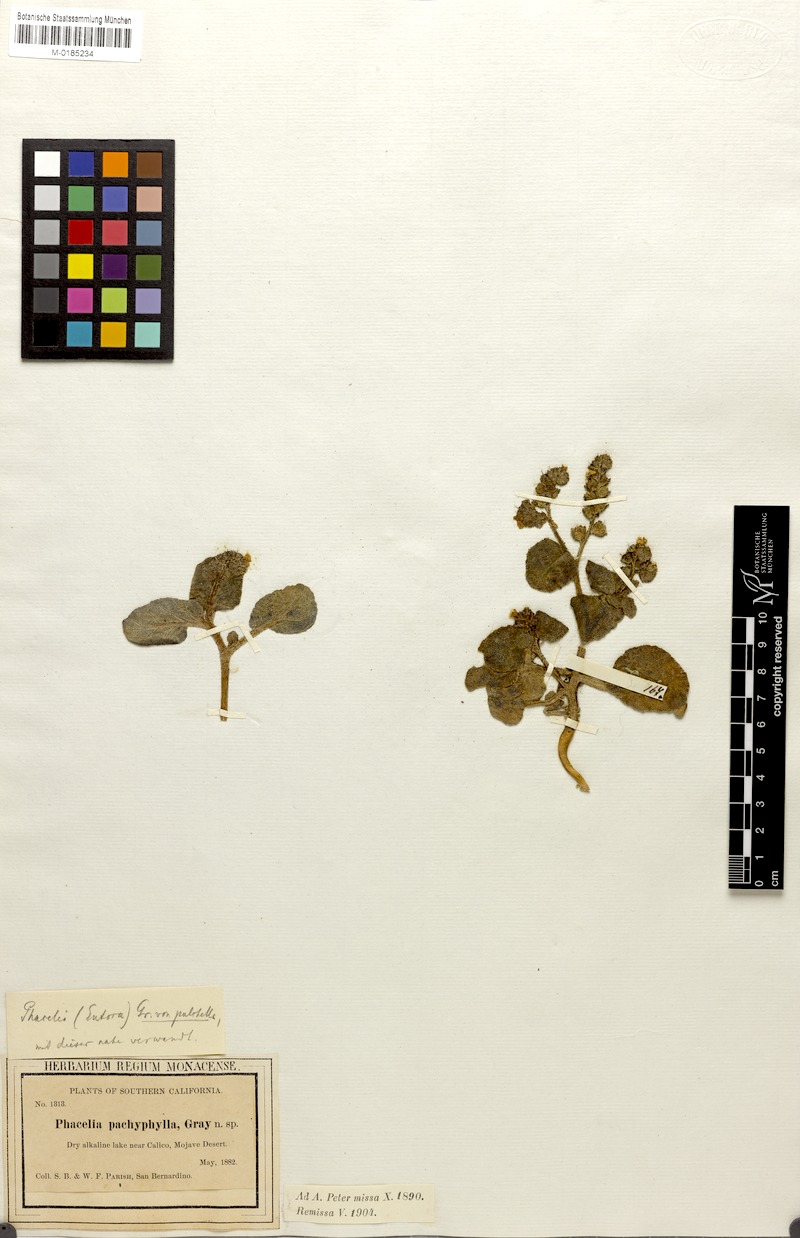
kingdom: Plantae
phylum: Tracheophyta
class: Magnoliopsida
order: Boraginales
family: Hydrophyllaceae
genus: Phacelia
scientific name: Phacelia pachyphylla
